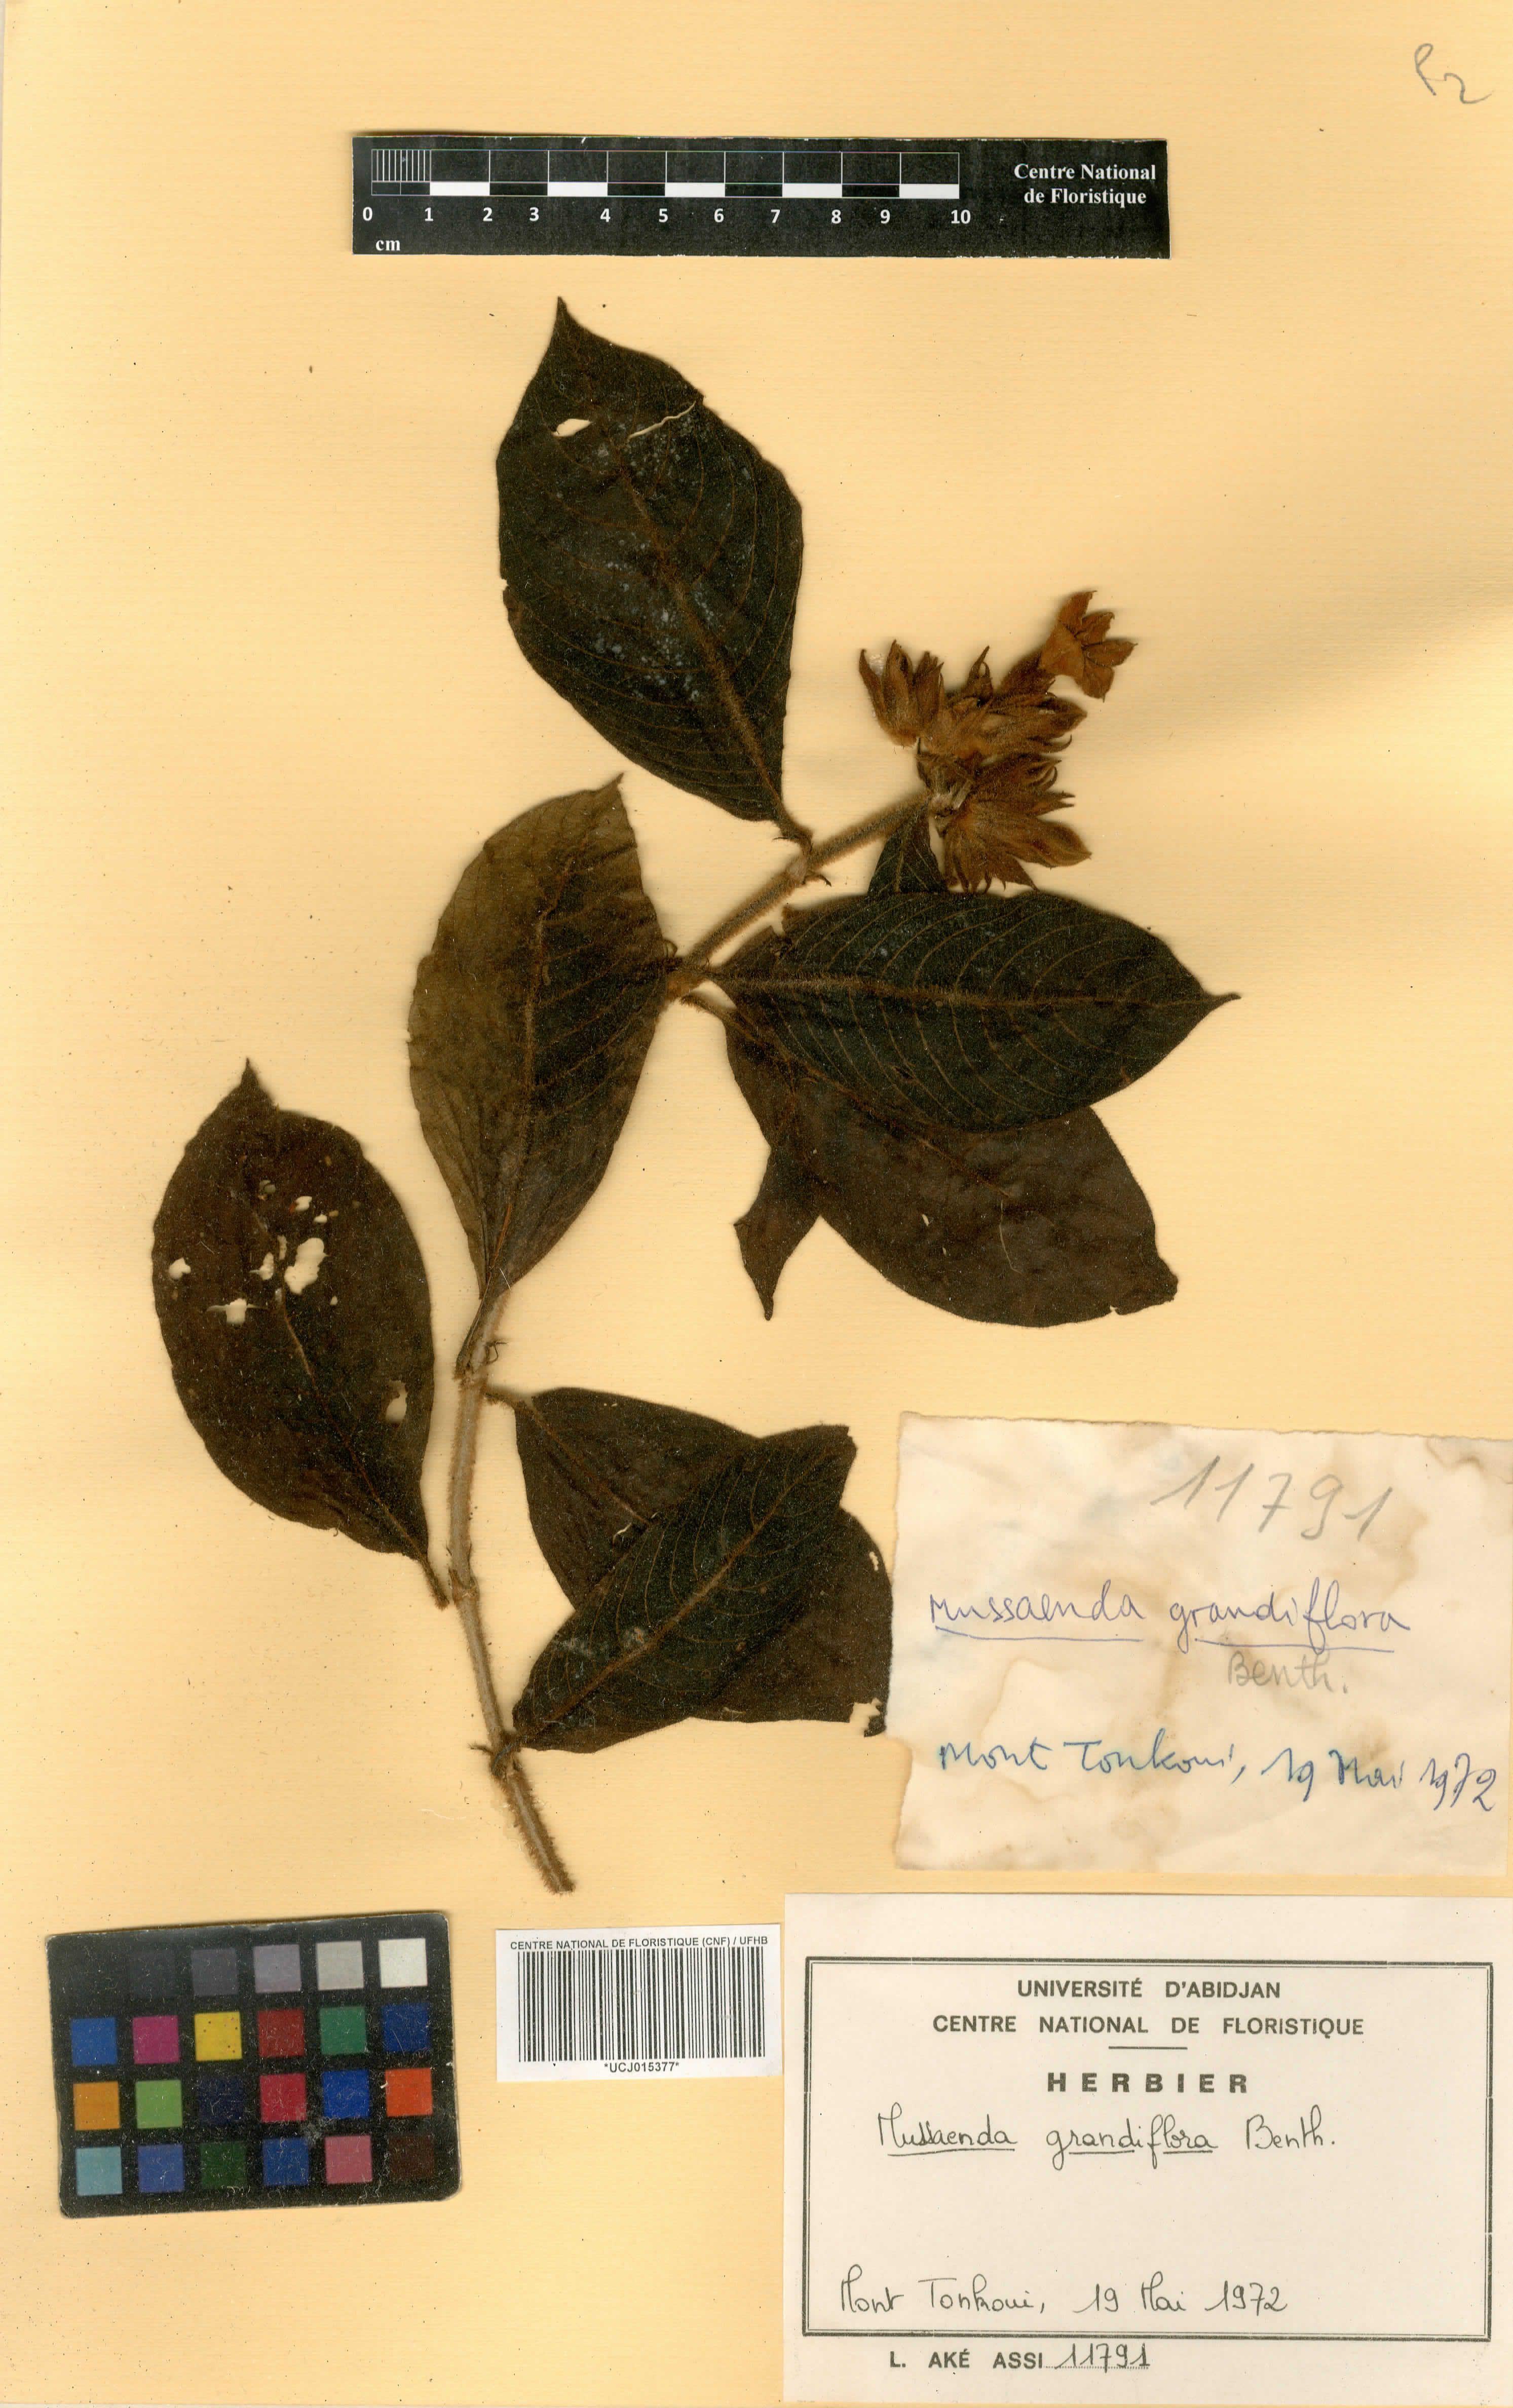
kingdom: Plantae
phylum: Tracheophyta
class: Magnoliopsida
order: Gentianales
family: Rubiaceae
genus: Mussaenda
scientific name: Mussaenda grandiflora
